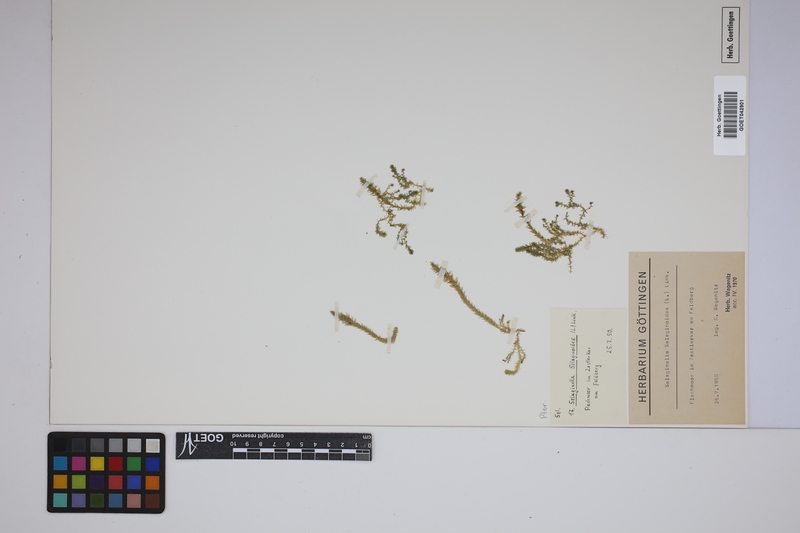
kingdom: Plantae
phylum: Tracheophyta
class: Lycopodiopsida
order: Selaginellales
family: Selaginellaceae
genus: Selaginella
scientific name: Selaginella selaginoides
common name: Prickly mountain-moss
